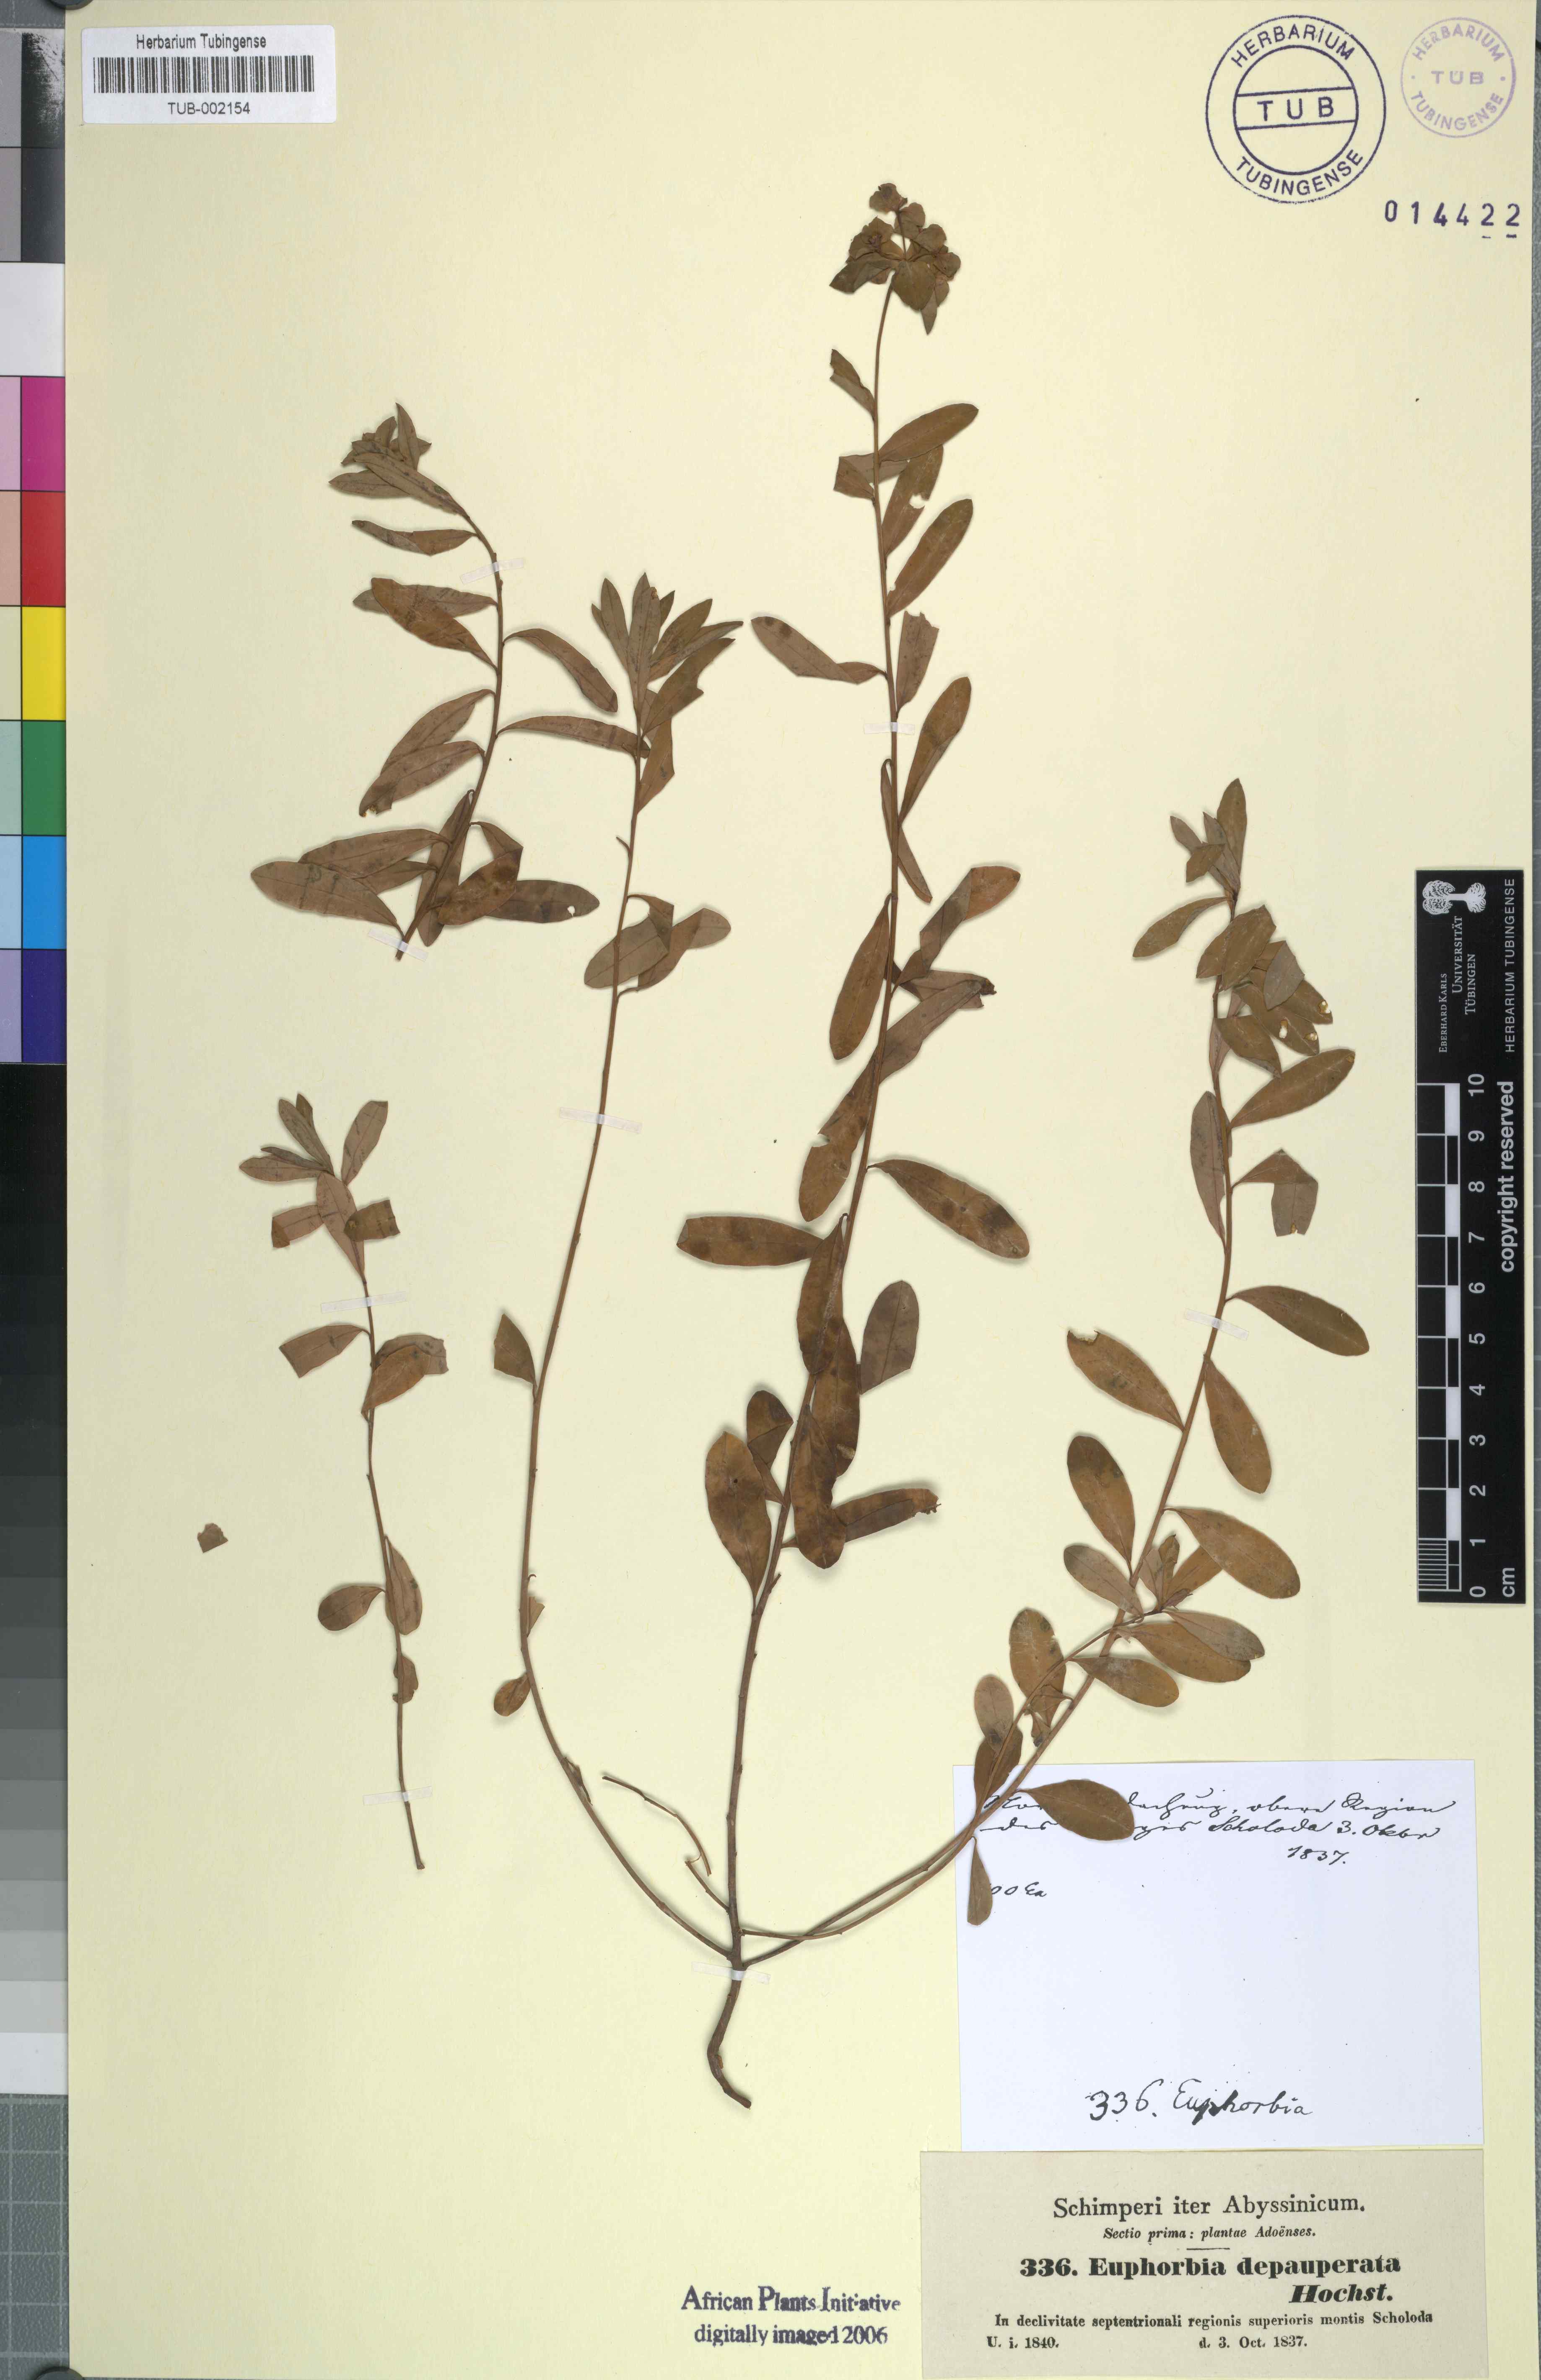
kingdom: Plantae
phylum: Tracheophyta
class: Magnoliopsida
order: Malpighiales
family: Euphorbiaceae
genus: Euphorbia
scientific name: Euphorbia depauperata
